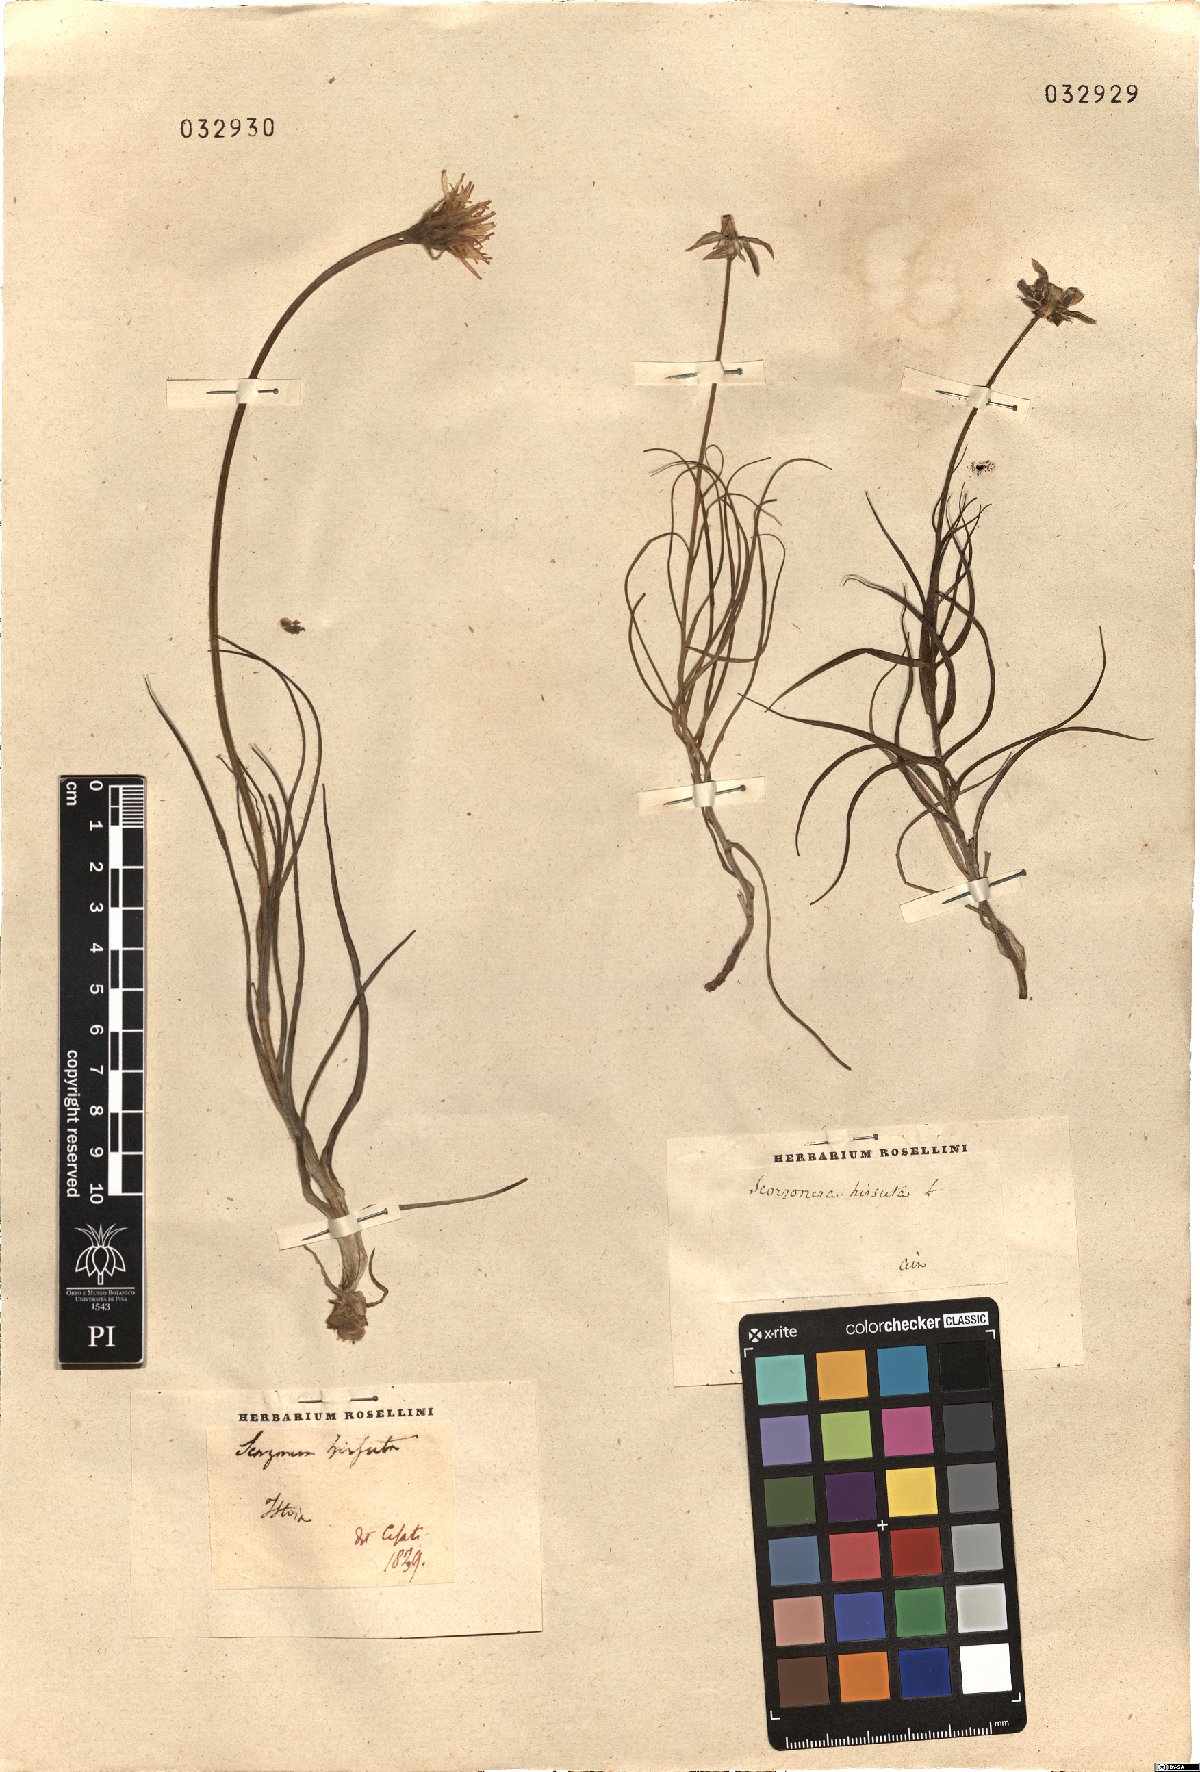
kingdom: Plantae
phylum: Tracheophyta
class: Magnoliopsida
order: Asterales
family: Asteraceae
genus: Gelasia
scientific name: Gelasia hirsuta
